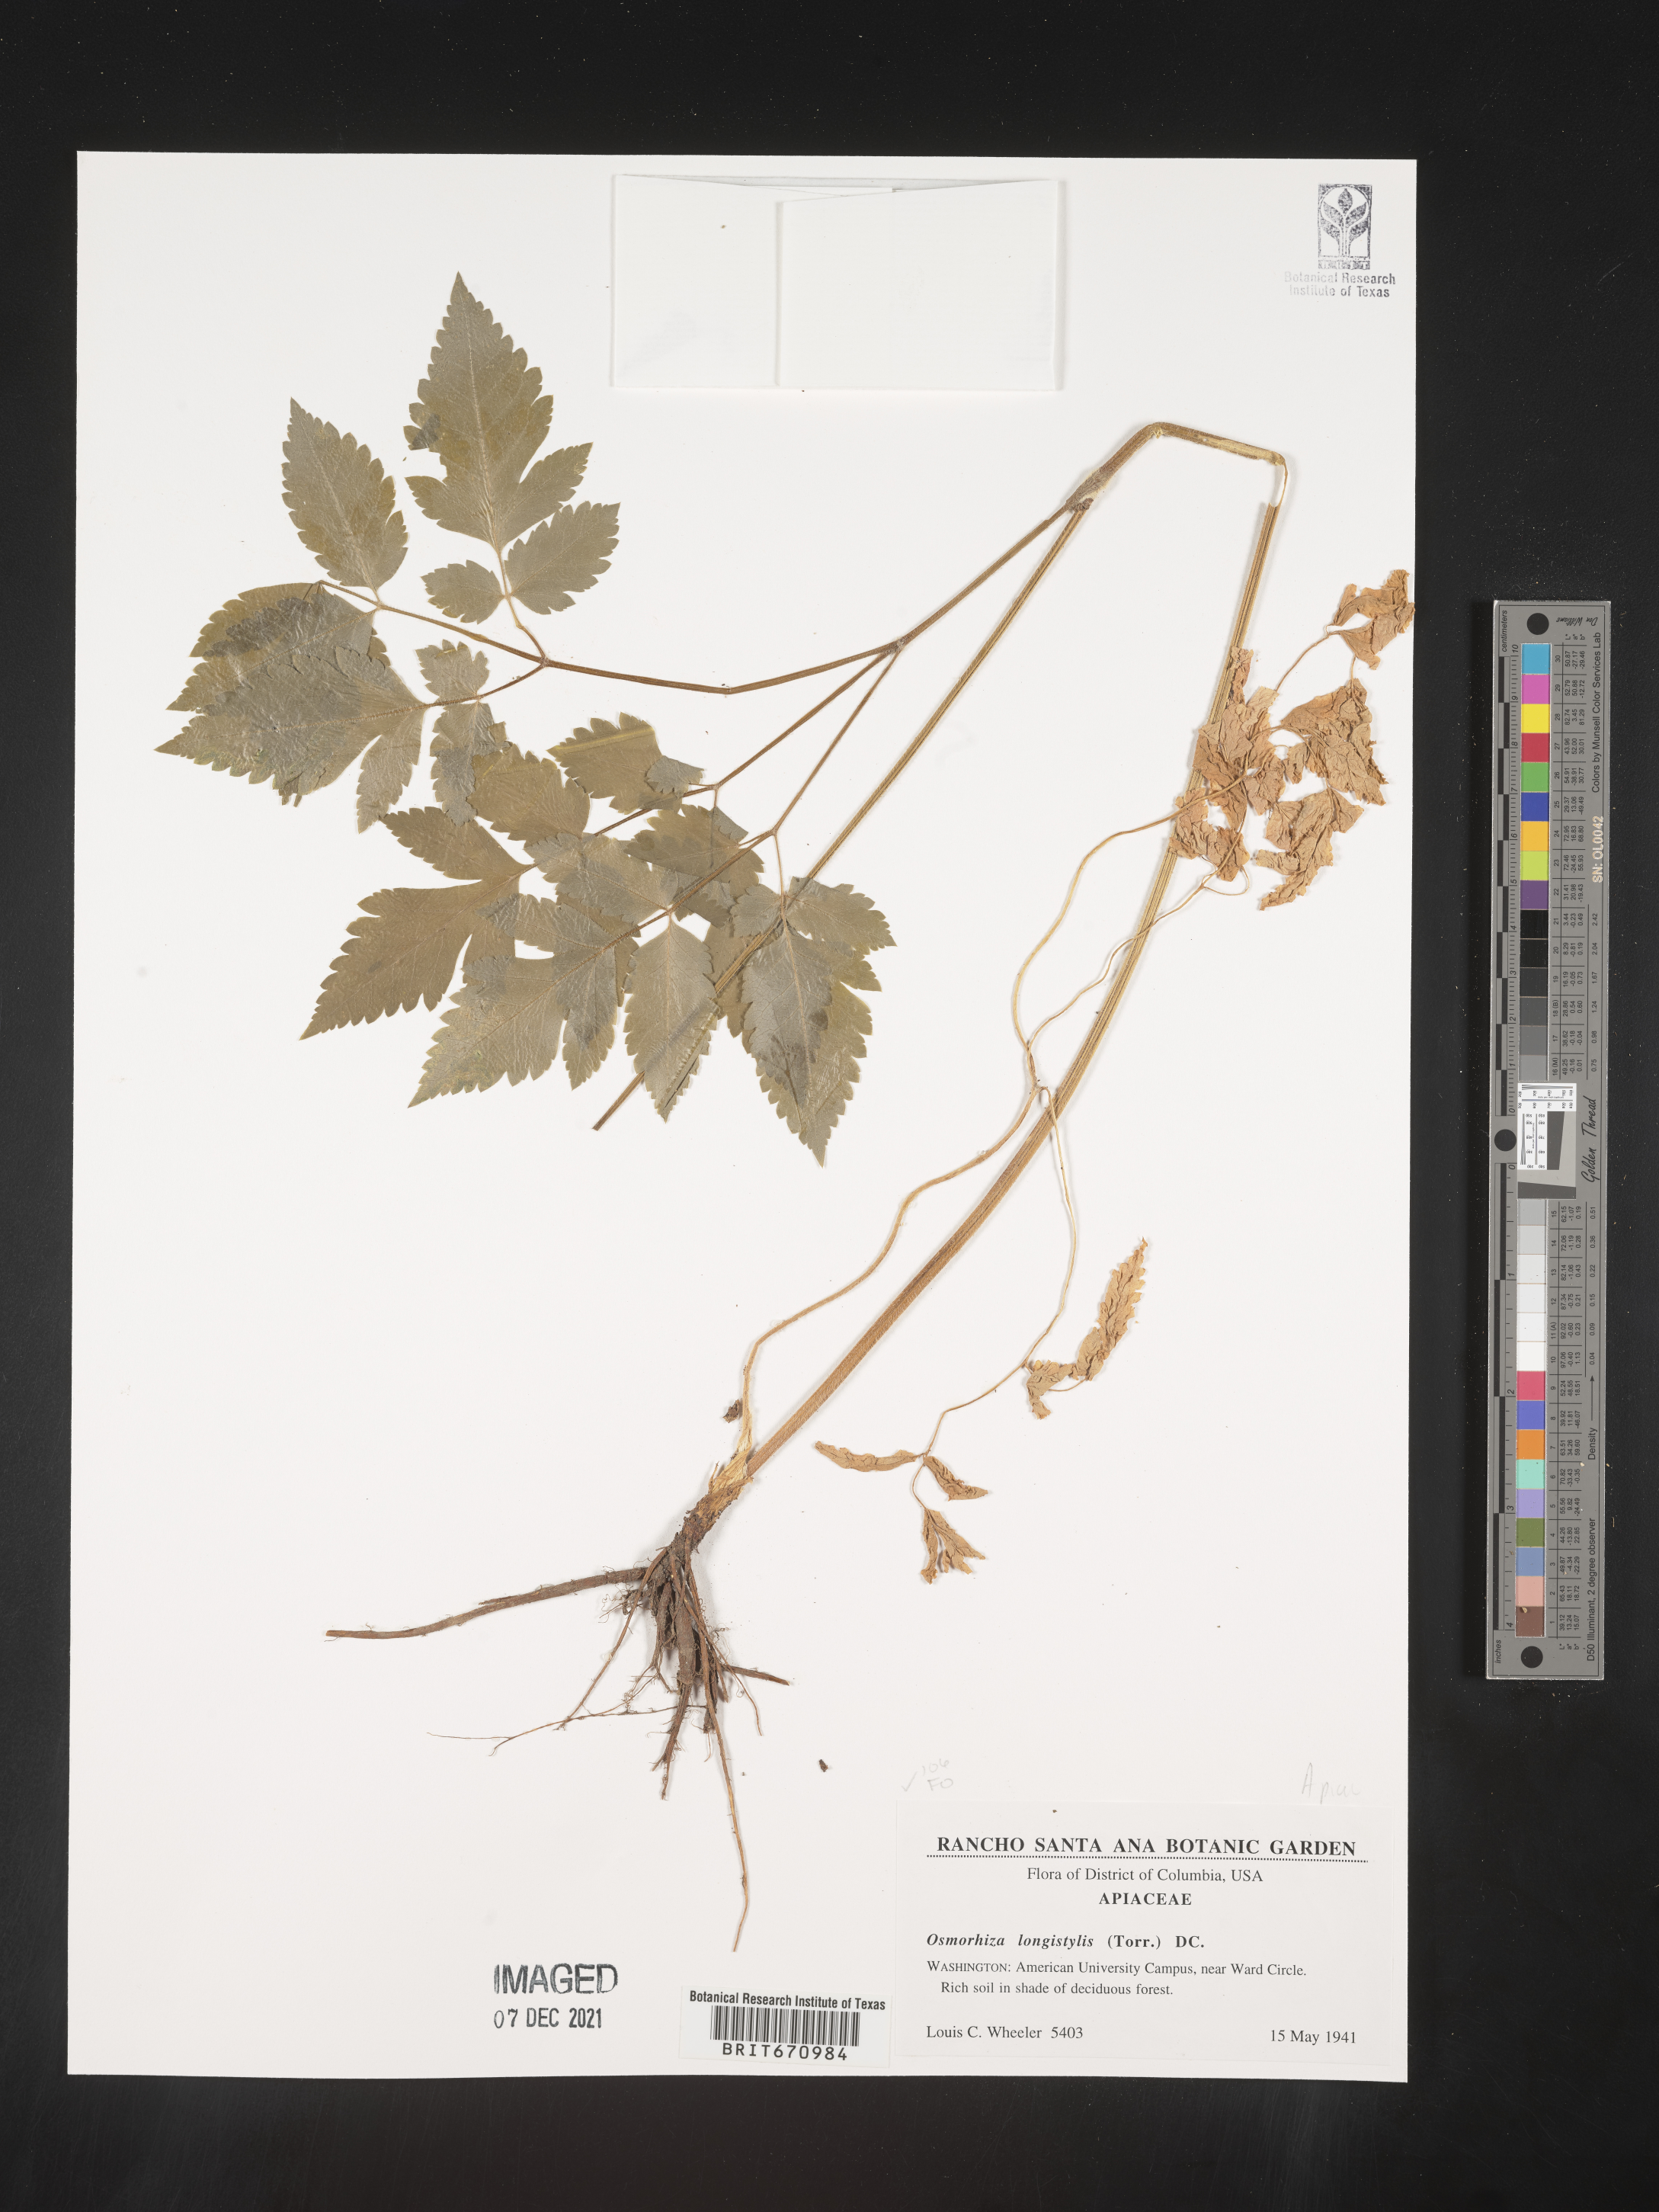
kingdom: Plantae
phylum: Tracheophyta
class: Magnoliopsida
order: Apiales
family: Apiaceae
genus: Osmorhiza
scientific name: Osmorhiza longistylis
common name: Smooth sweet cicely
